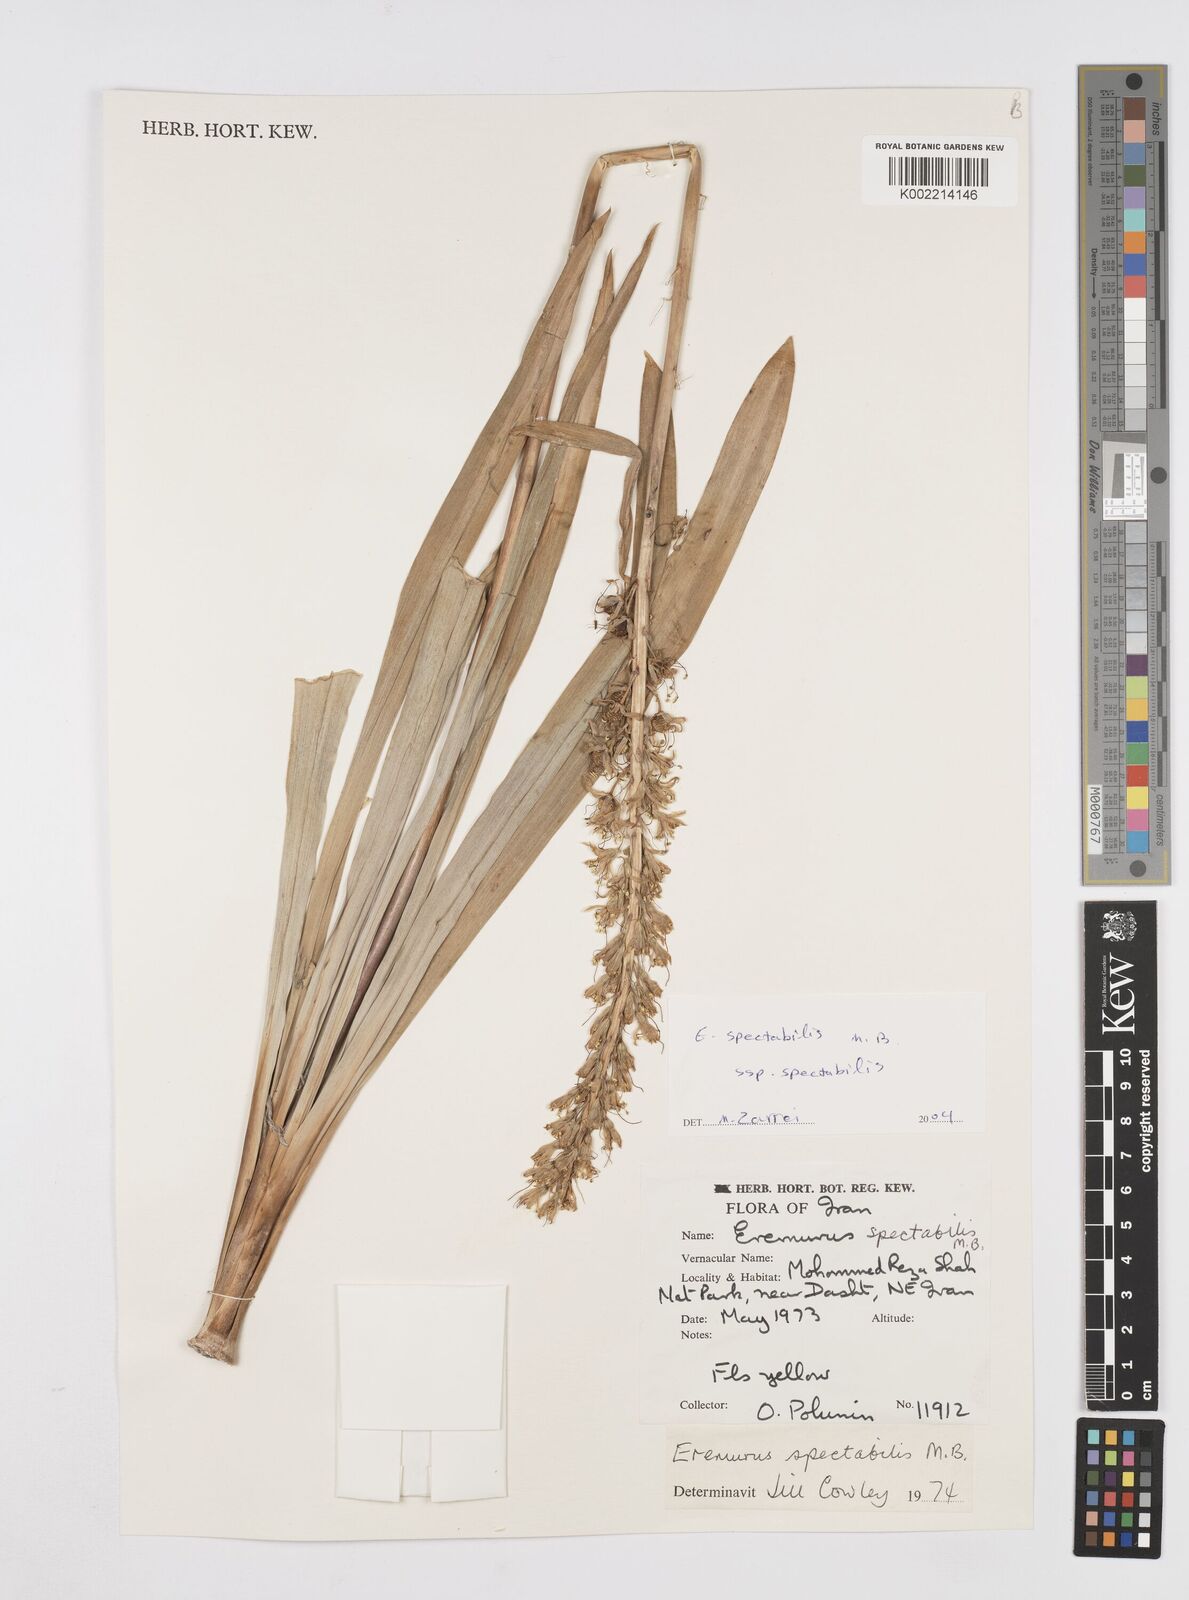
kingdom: Plantae
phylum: Tracheophyta
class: Liliopsida
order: Asparagales
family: Asphodelaceae
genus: Eremurus
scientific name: Eremurus spectabilis
